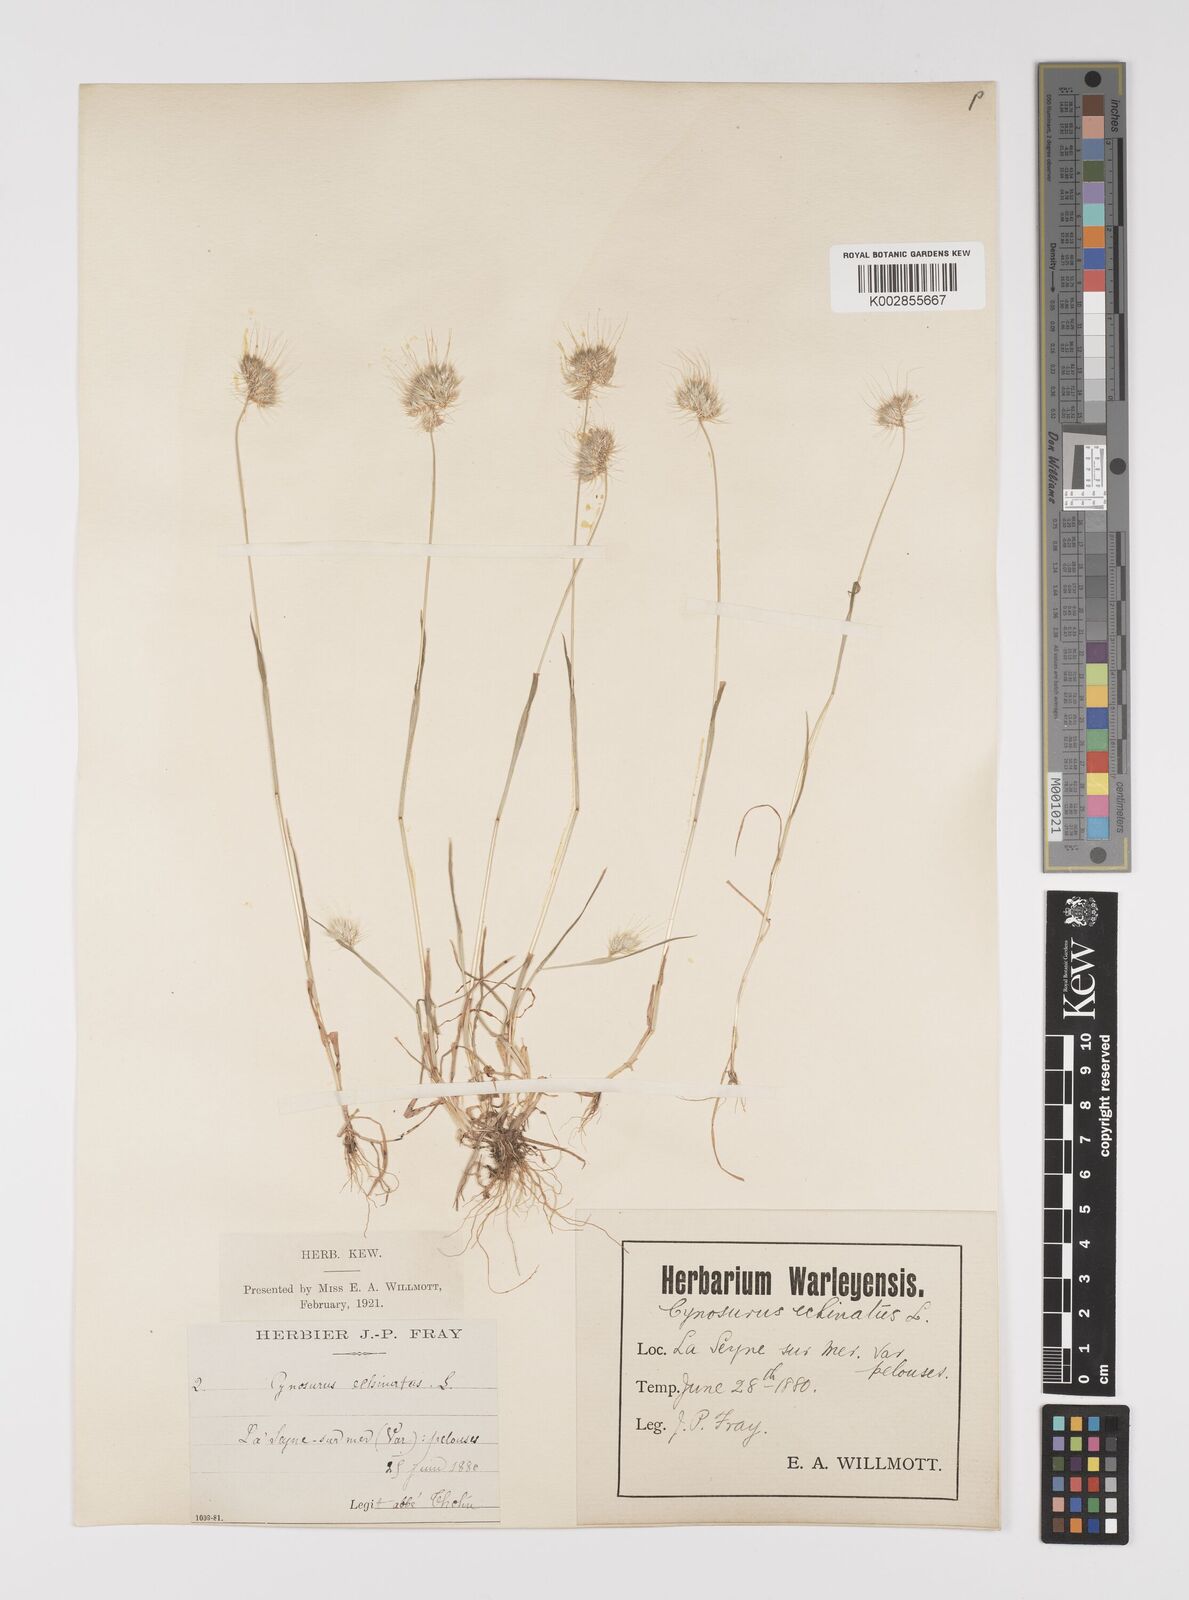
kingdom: Plantae
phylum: Tracheophyta
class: Liliopsida
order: Poales
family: Poaceae
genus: Cynosurus
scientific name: Cynosurus echinatus
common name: Rough dog's-tail
